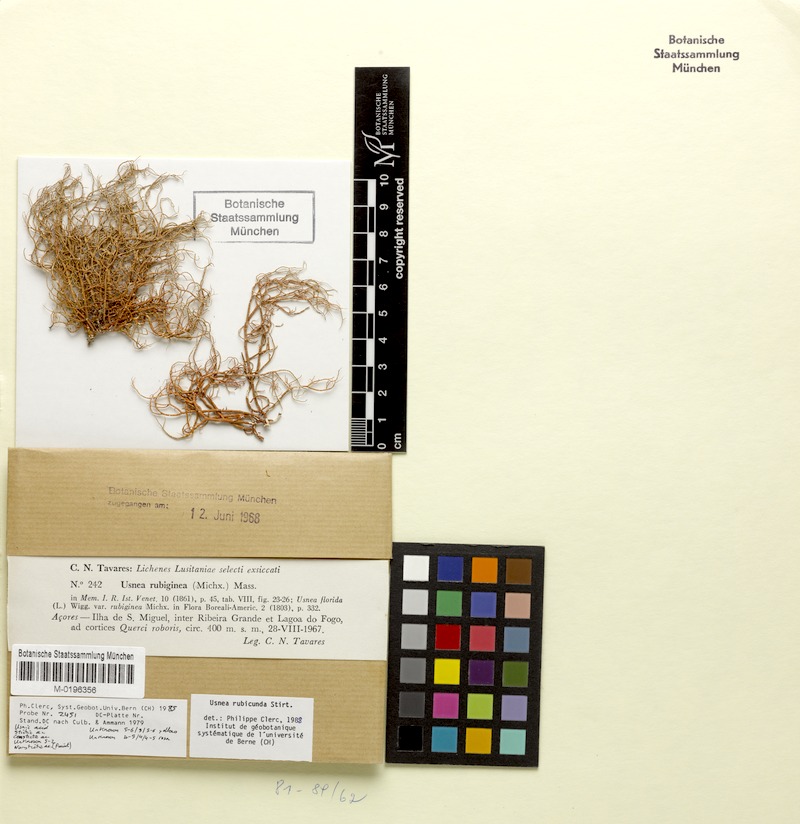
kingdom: Fungi
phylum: Ascomycota
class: Lecanoromycetes
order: Lecanorales
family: Parmeliaceae
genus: Usnea
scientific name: Usnea rubicunda
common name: Red beard lichen
